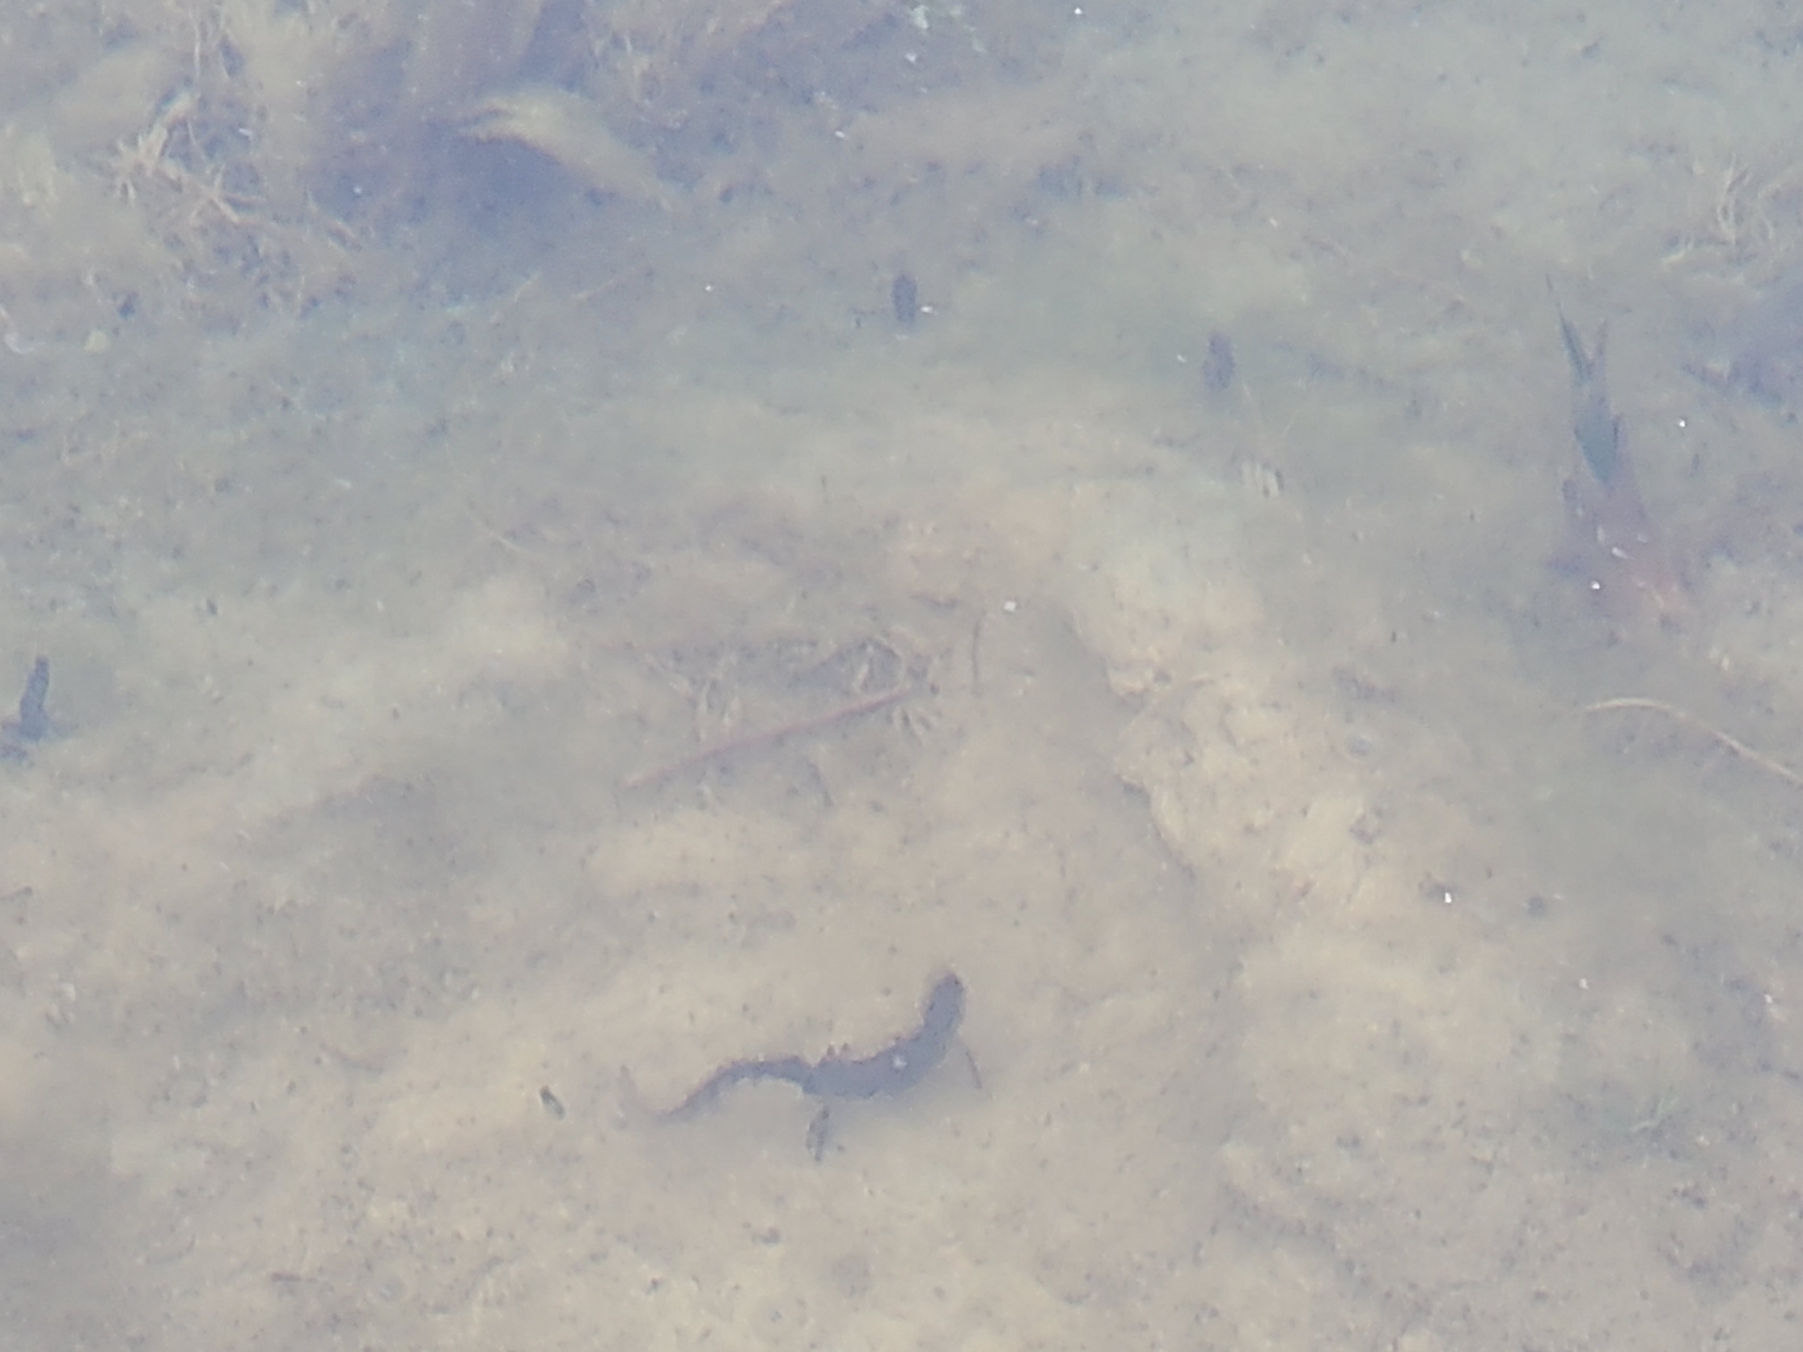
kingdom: Animalia
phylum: Chordata
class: Amphibia
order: Caudata
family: Salamandridae
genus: Lissotriton
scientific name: Lissotriton vulgaris
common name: Lille vandsalamander
